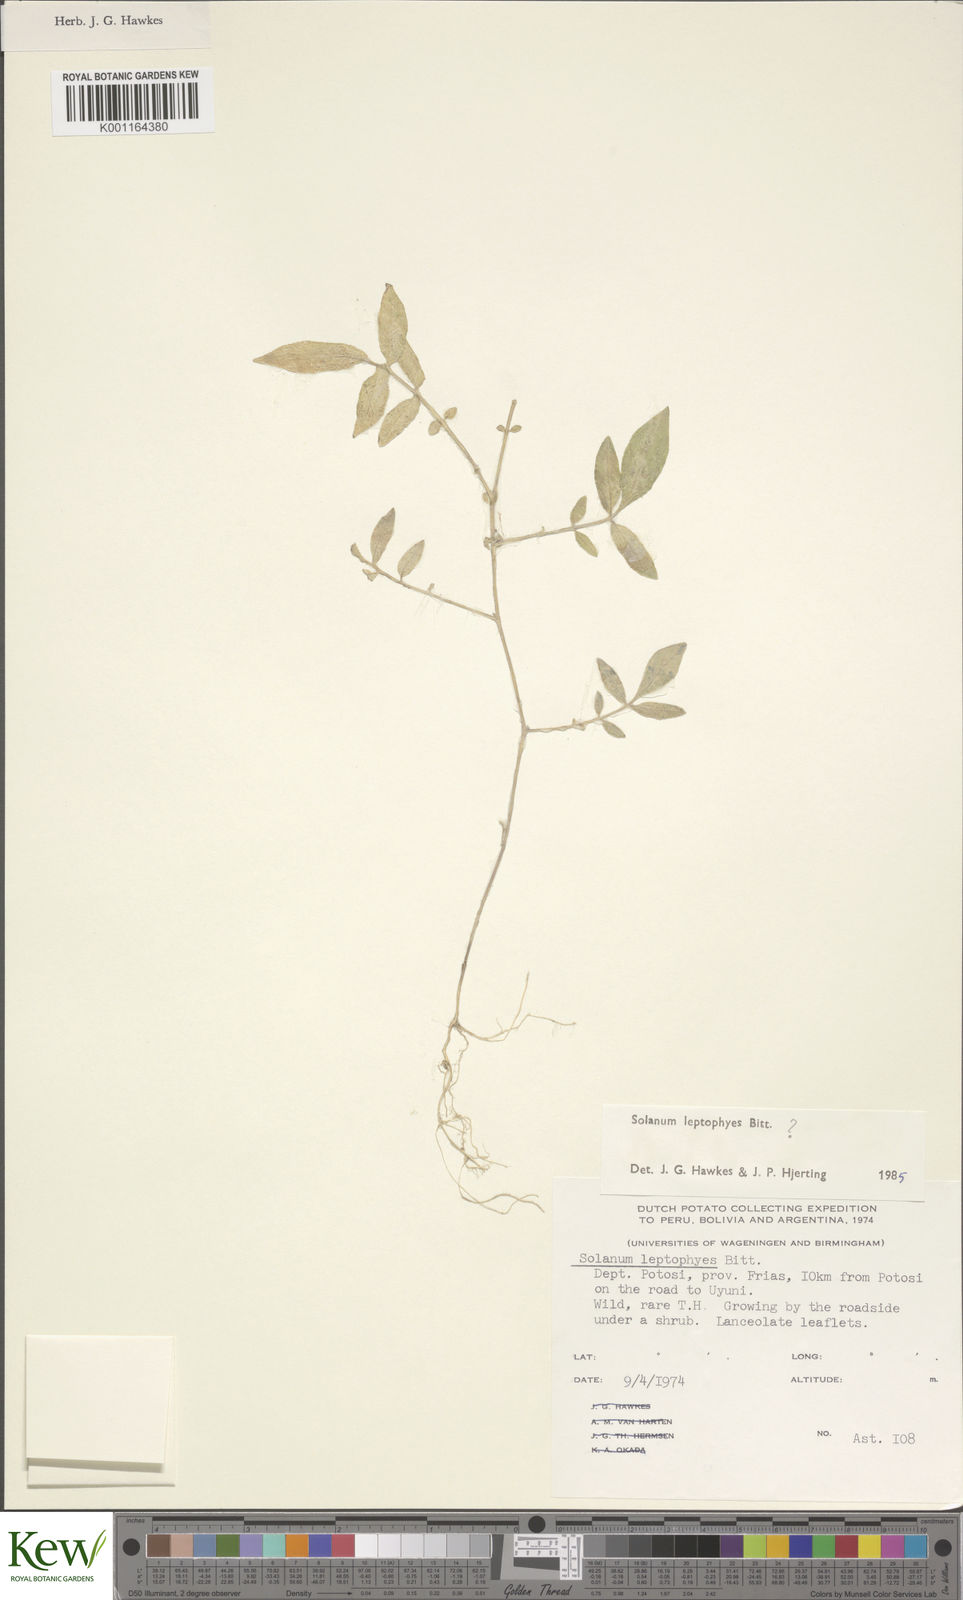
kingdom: Plantae
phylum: Tracheophyta
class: Magnoliopsida
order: Solanales
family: Solanaceae
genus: Solanum
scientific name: Solanum brevicaule
